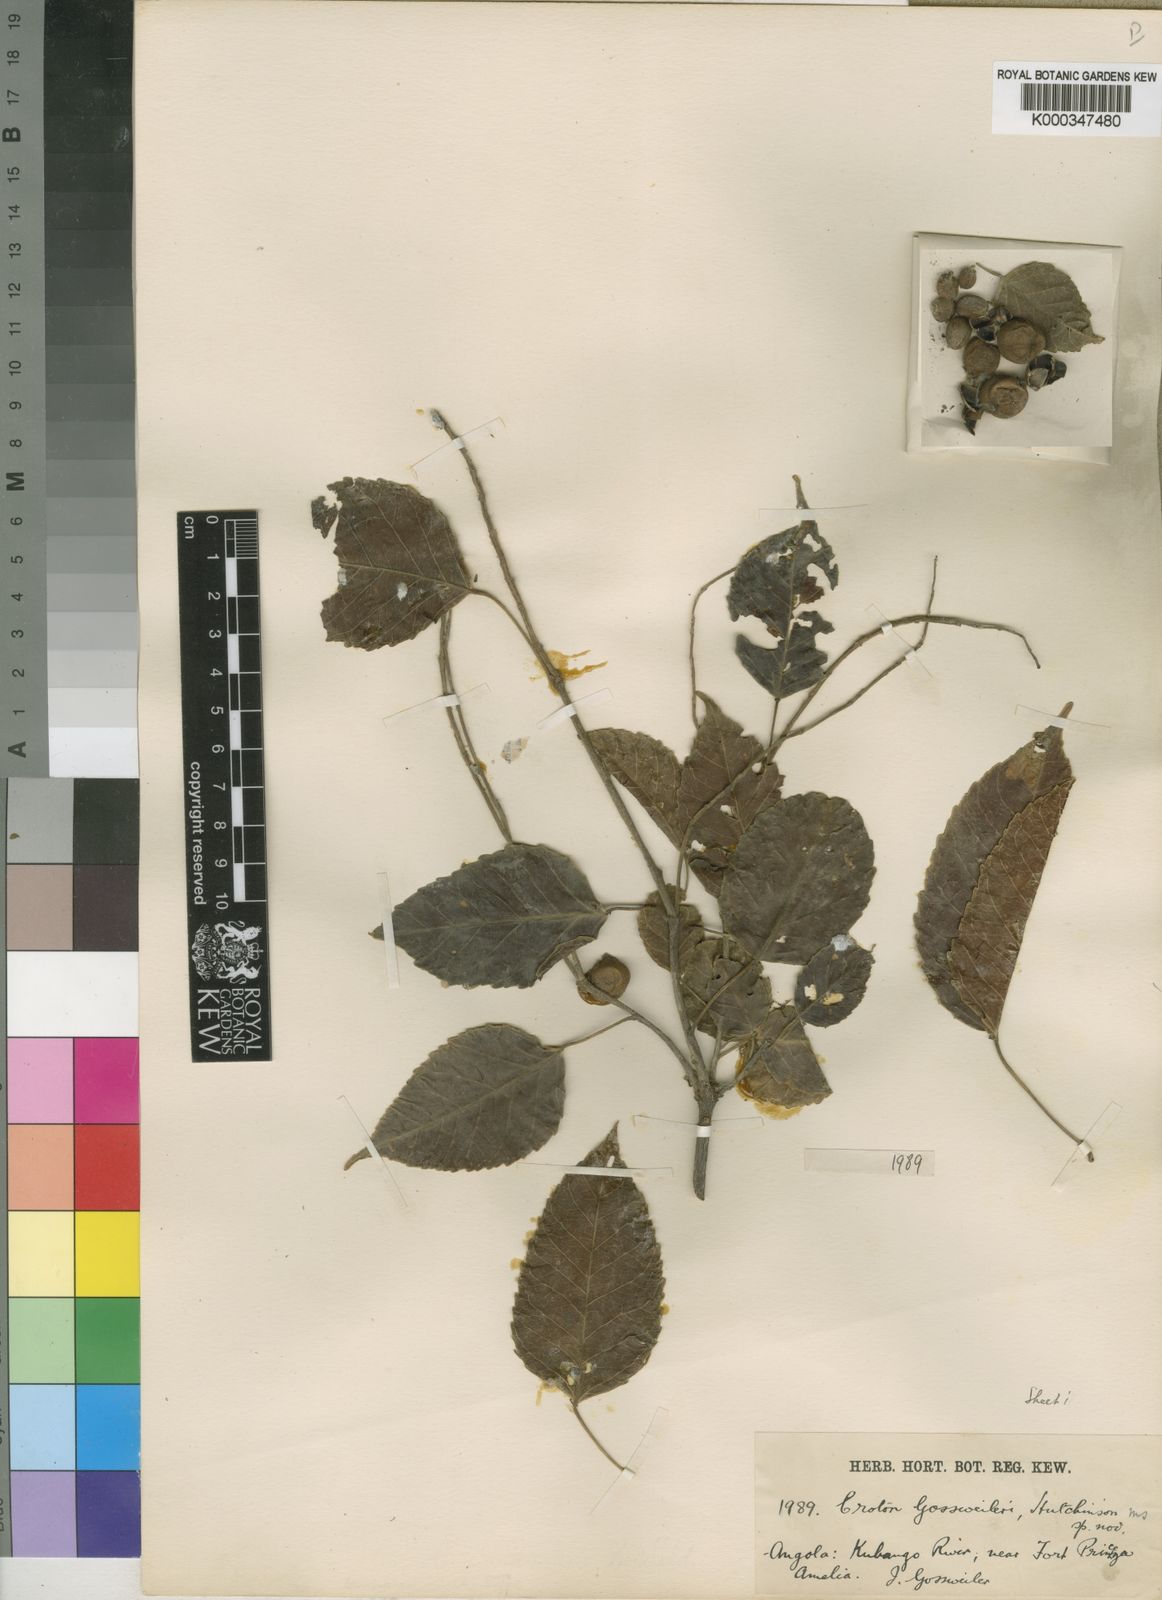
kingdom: Plantae
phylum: Tracheophyta
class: Magnoliopsida
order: Malpighiales
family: Euphorbiaceae
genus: Croton
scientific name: Croton gossweileri
